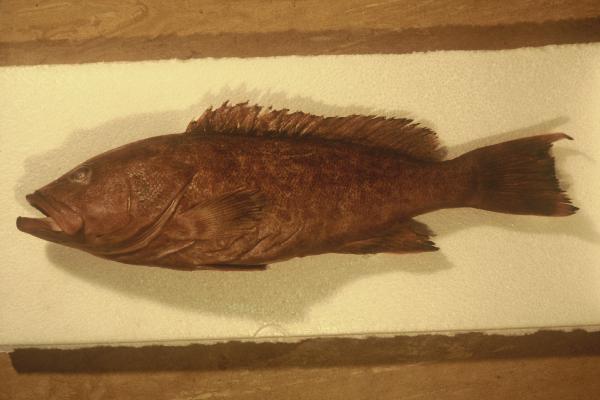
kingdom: Animalia
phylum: Chordata
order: Perciformes
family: Serranidae
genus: Epinephelus
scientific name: Epinephelus gabriellae
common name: Gabriella's grouper
